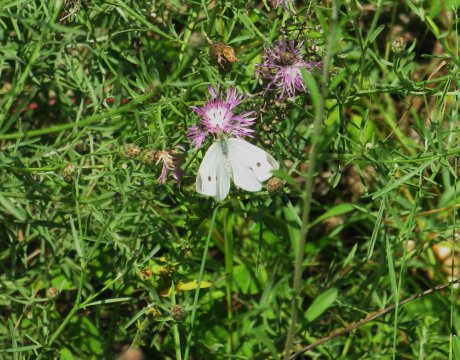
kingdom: Animalia
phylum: Arthropoda
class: Insecta
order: Lepidoptera
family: Pieridae
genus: Pieris
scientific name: Pieris rapae
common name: Cabbage White
